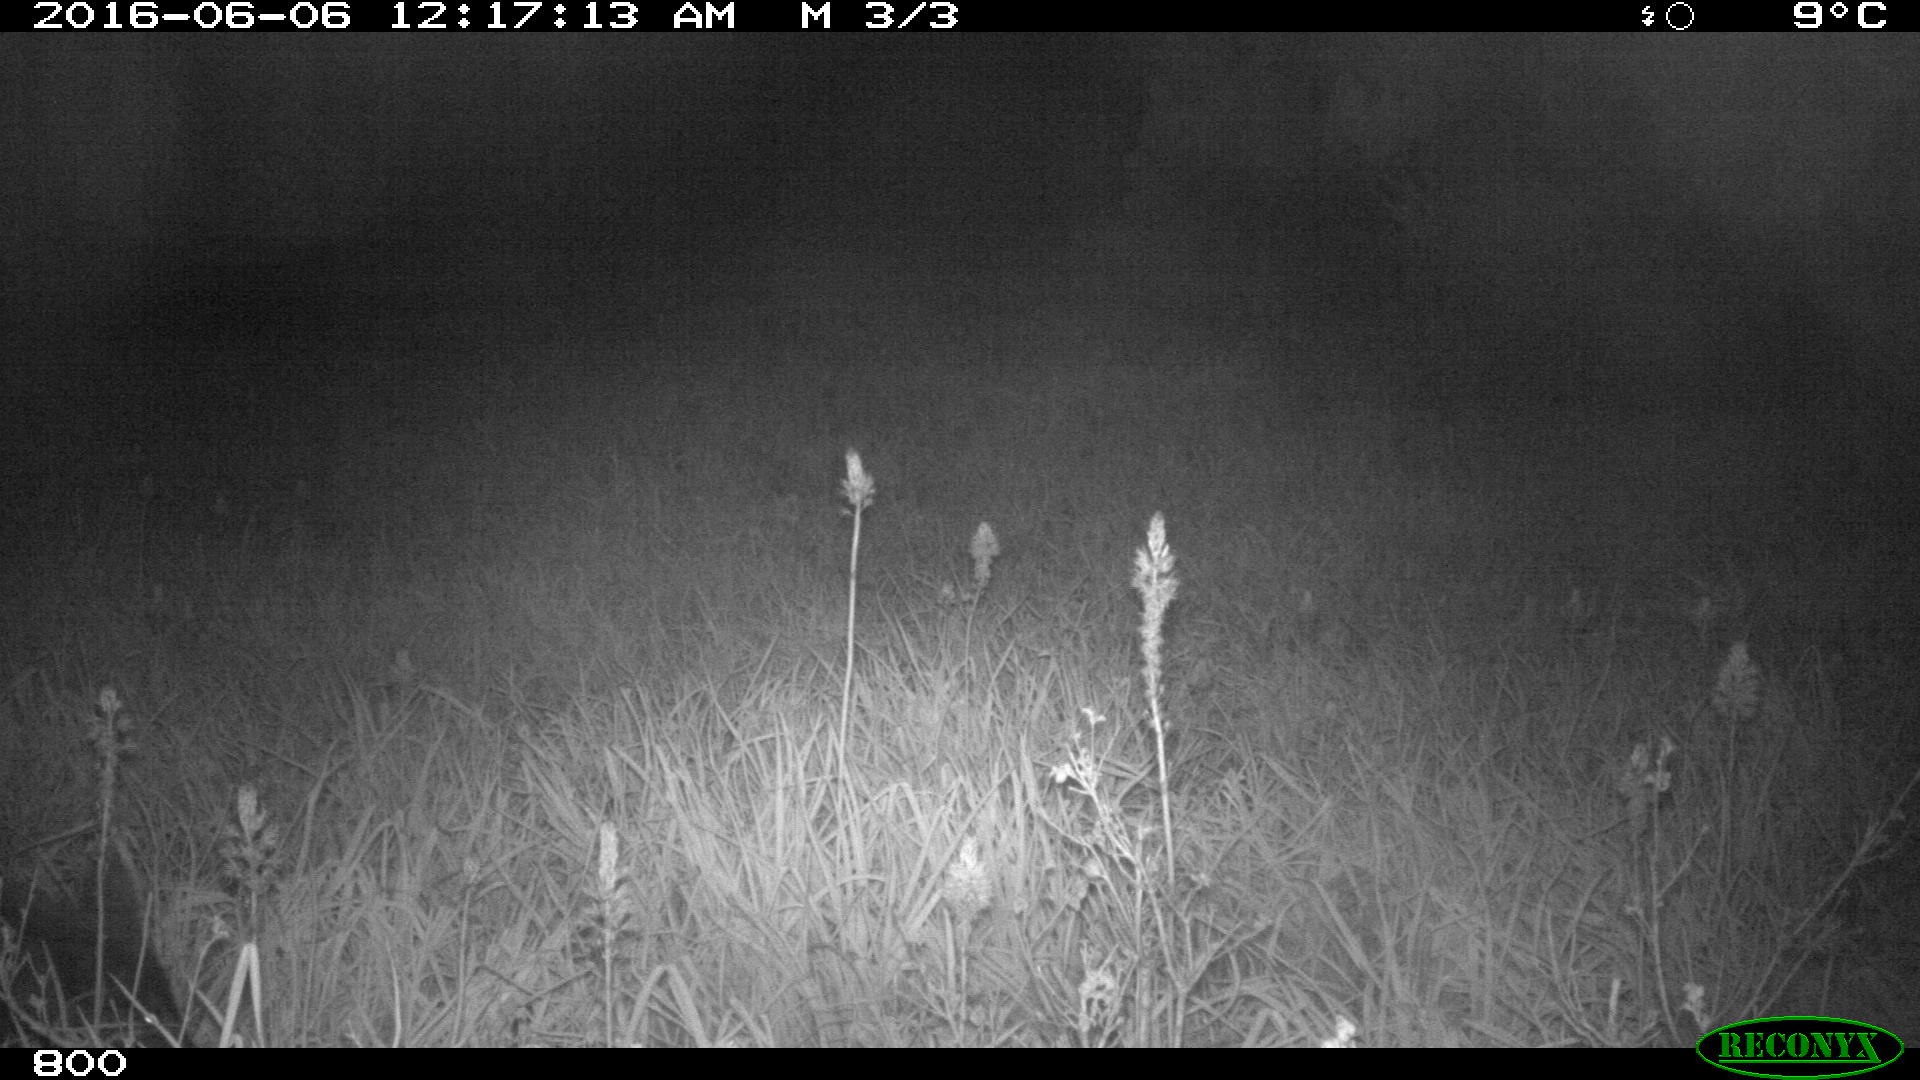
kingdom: Animalia
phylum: Chordata
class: Mammalia
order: Artiodactyla
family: Suidae
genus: Sus
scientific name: Sus scrofa
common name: Wild boar
